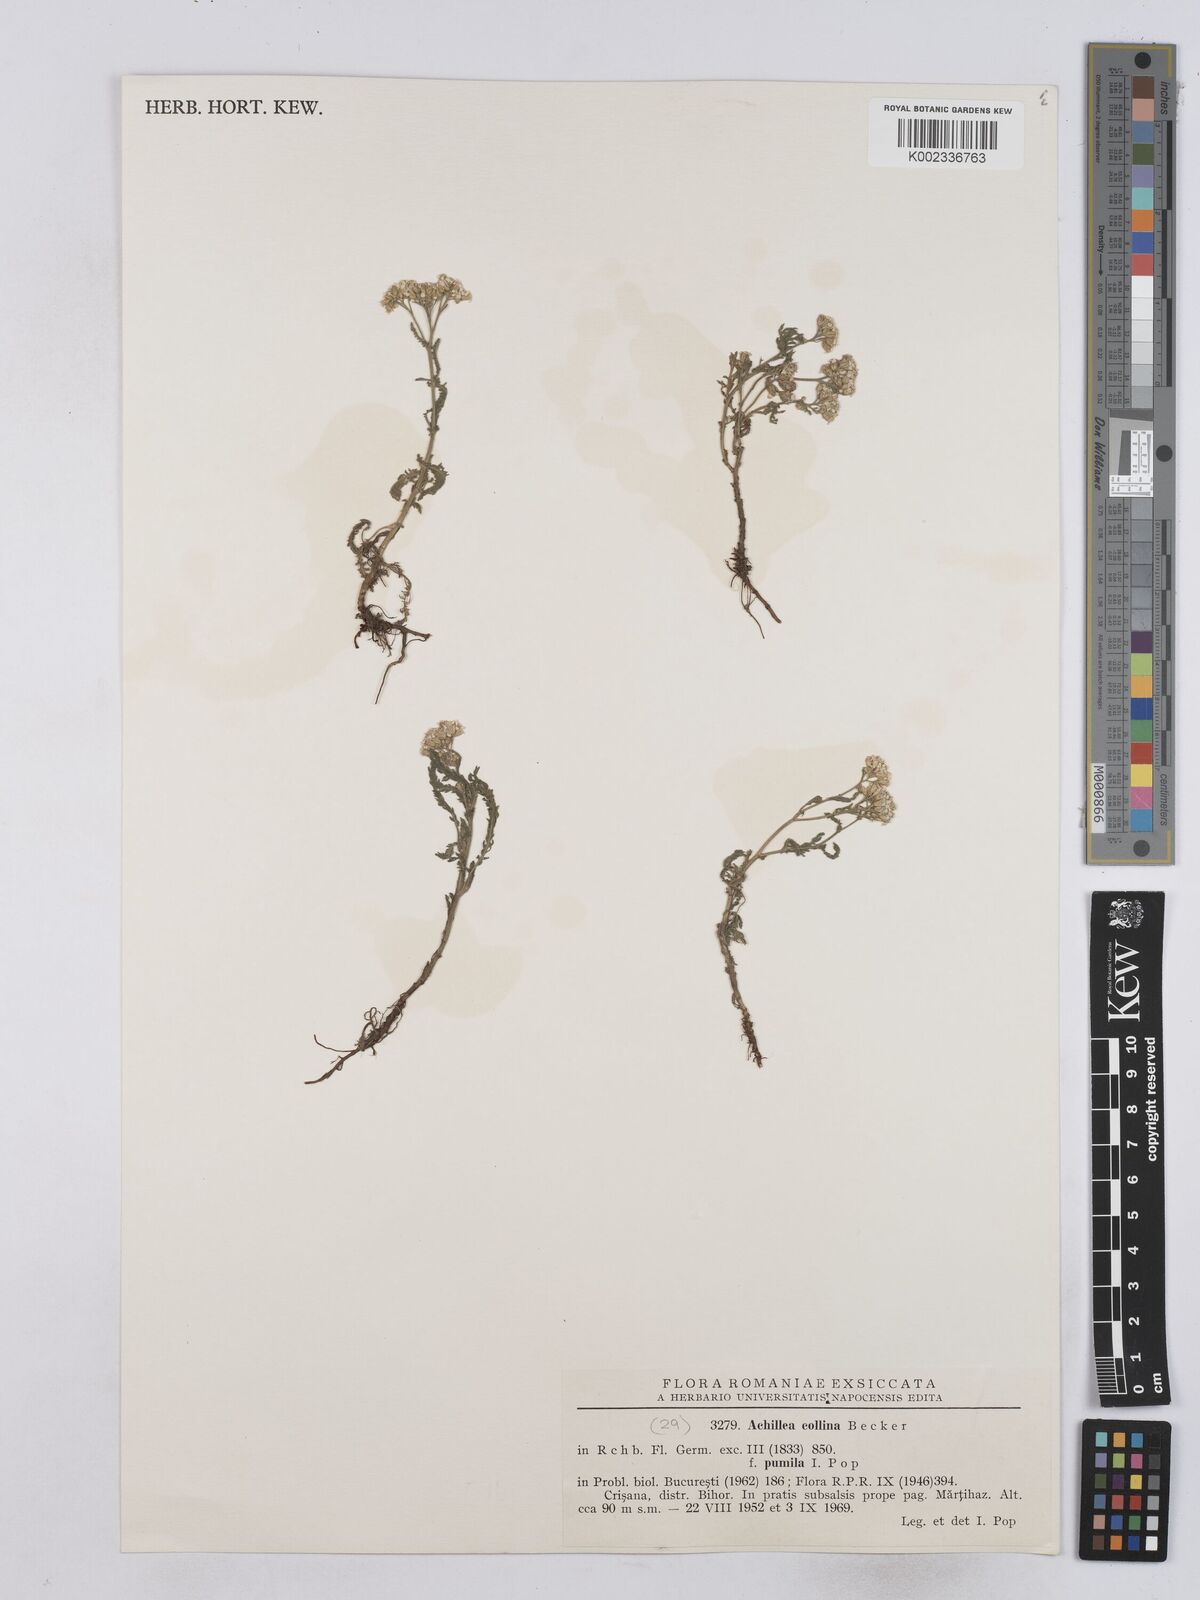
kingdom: Plantae
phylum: Tracheophyta
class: Magnoliopsida
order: Asterales
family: Asteraceae
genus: Achillea
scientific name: Achillea collina
